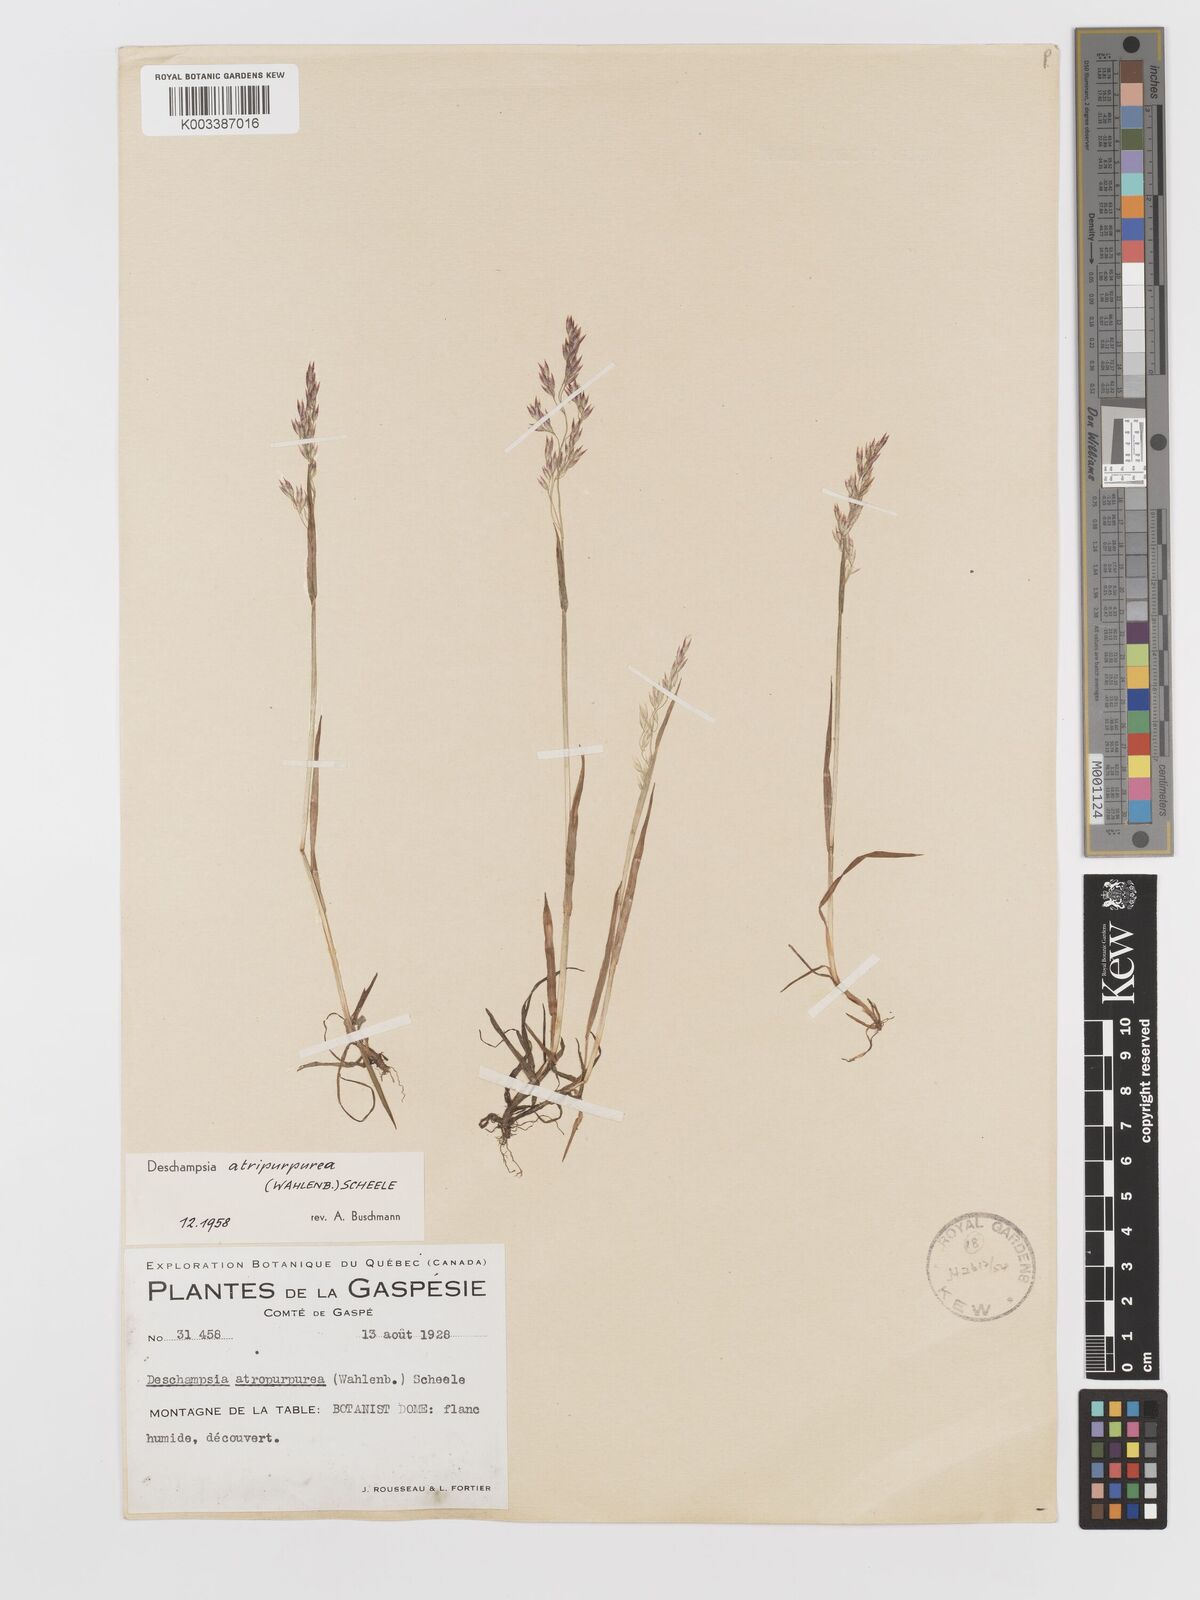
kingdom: Plantae
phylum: Tracheophyta
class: Liliopsida
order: Poales
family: Poaceae
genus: Vahlodea
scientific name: Vahlodea atropurpurea
